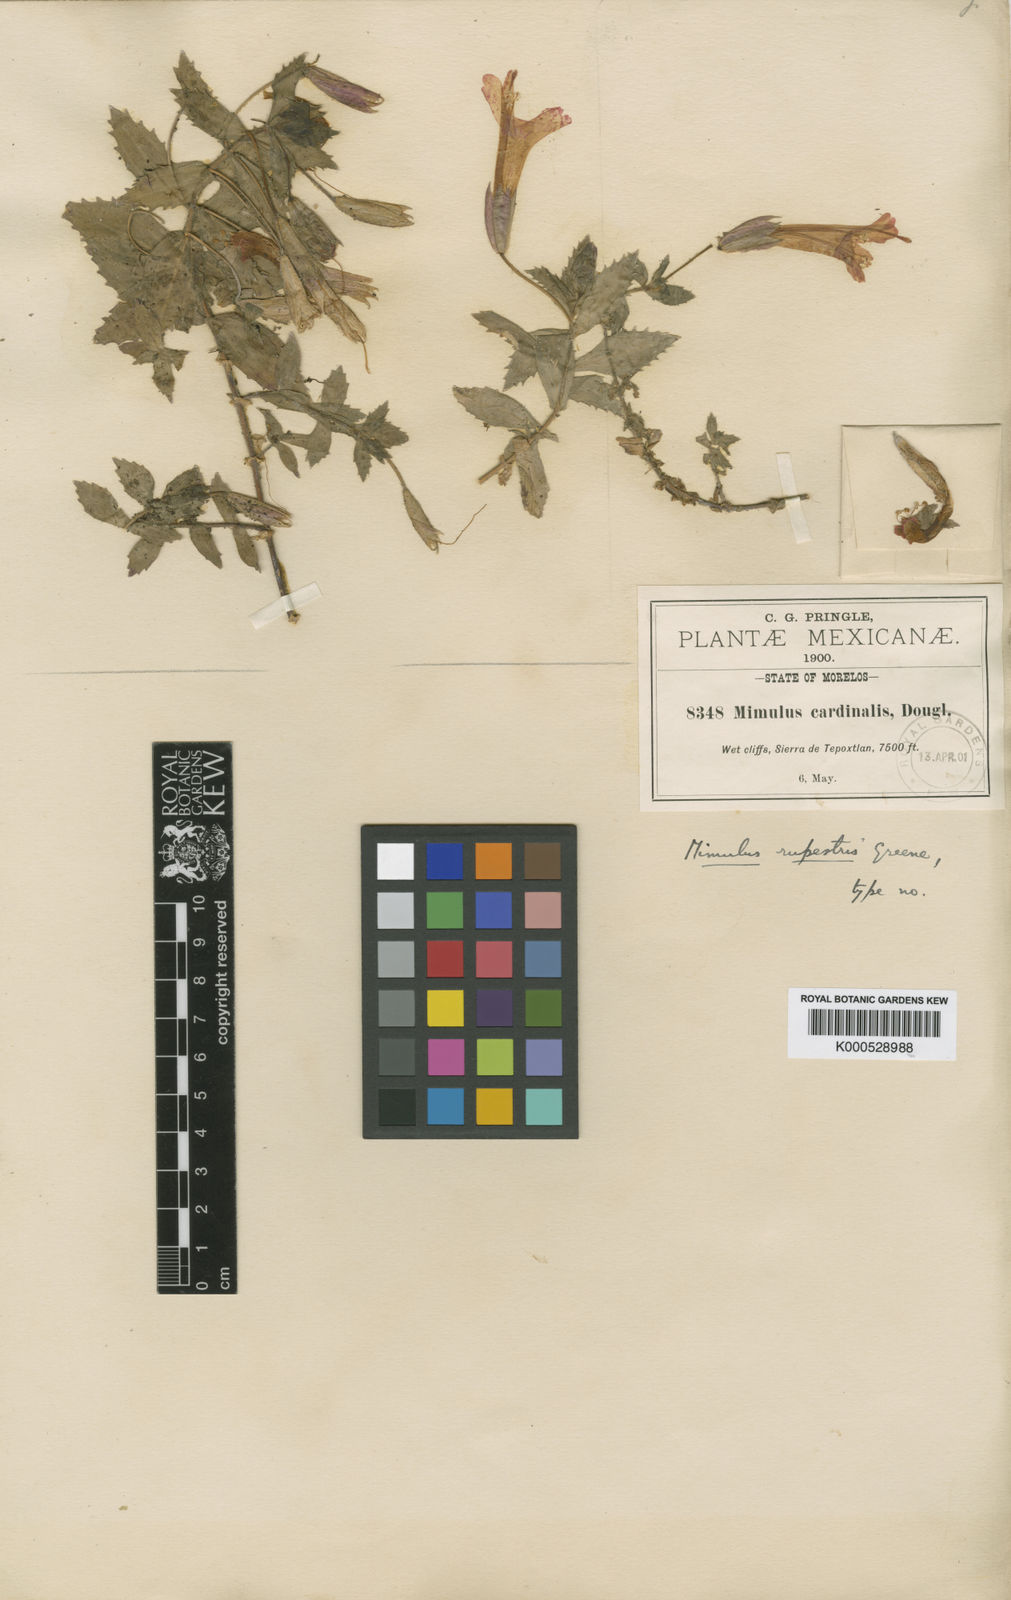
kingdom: Plantae
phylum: Tracheophyta
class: Magnoliopsida
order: Lamiales
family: Phrymaceae
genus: Erythranthe
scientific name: Erythranthe rupestris
